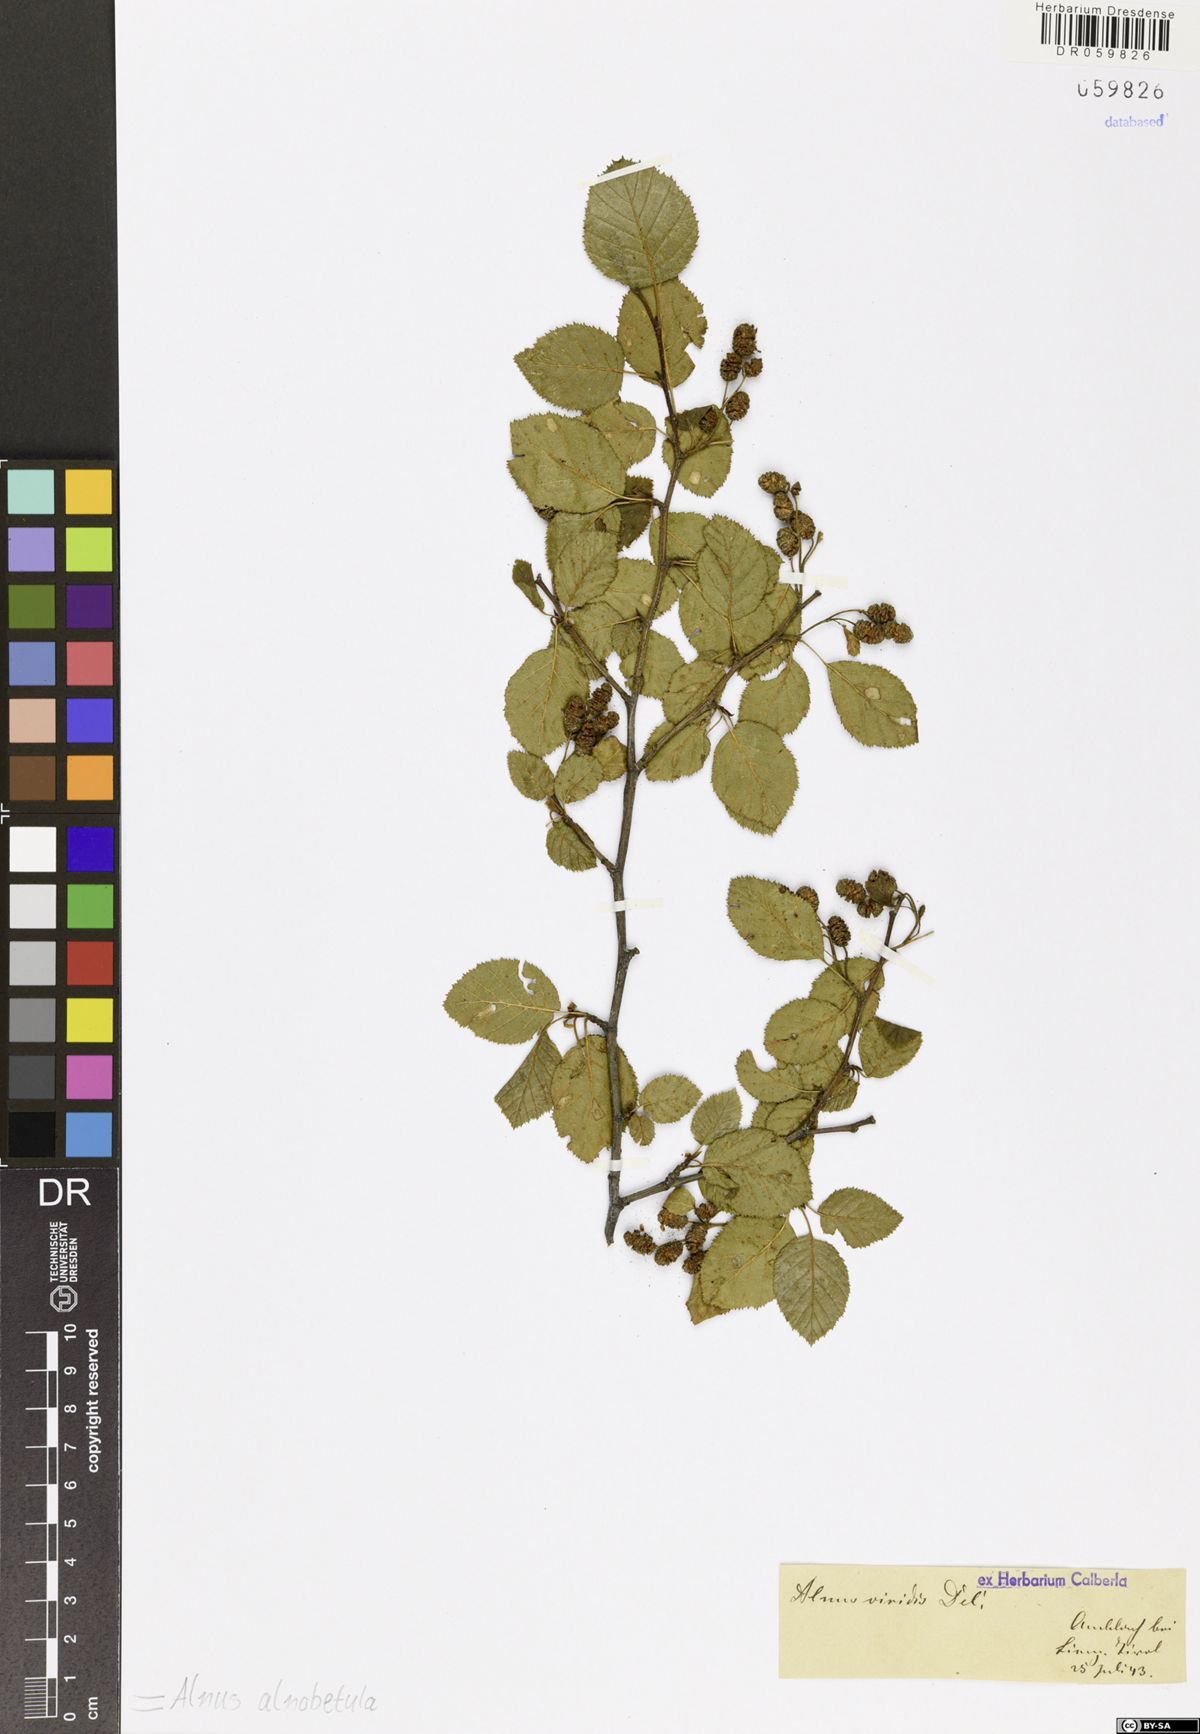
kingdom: Plantae
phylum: Tracheophyta
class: Magnoliopsida
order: Fagales
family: Betulaceae
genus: Alnus
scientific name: Alnus alnobetula
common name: Green alder
